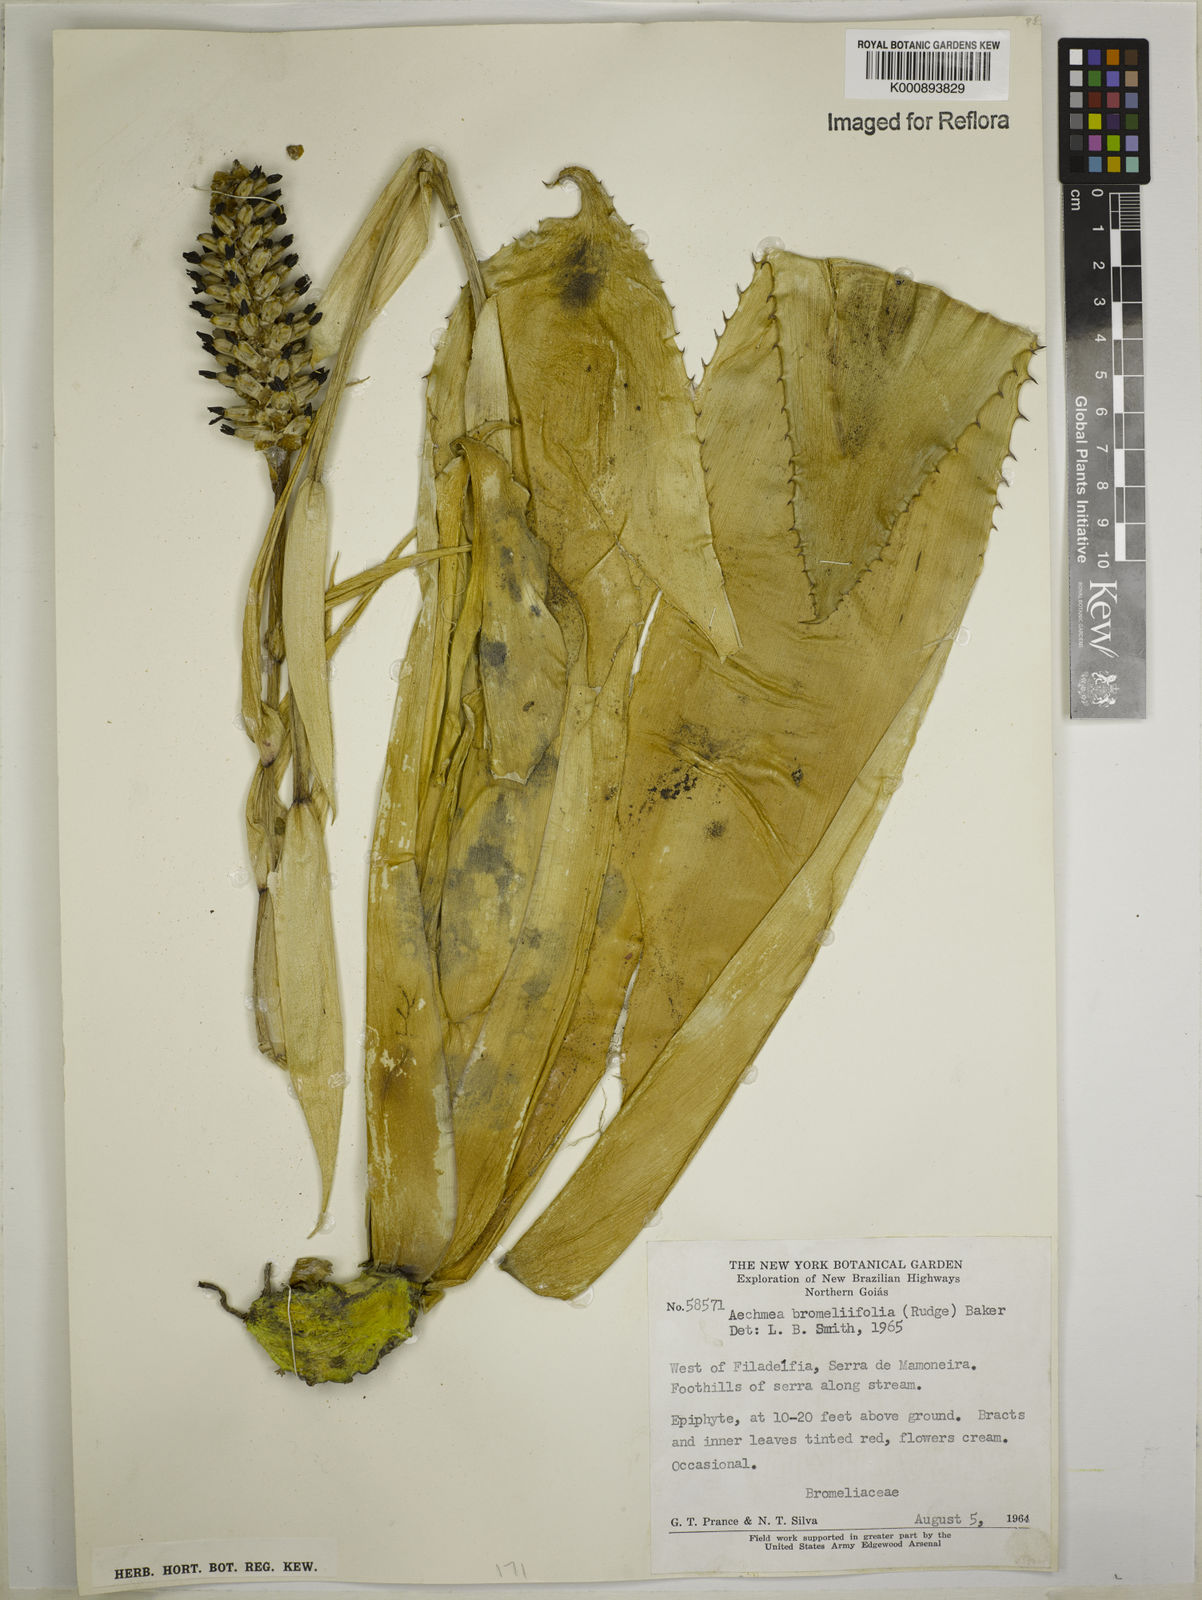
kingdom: Plantae
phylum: Tracheophyta
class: Liliopsida
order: Poales
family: Bromeliaceae
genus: Aechmea
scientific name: Aechmea
